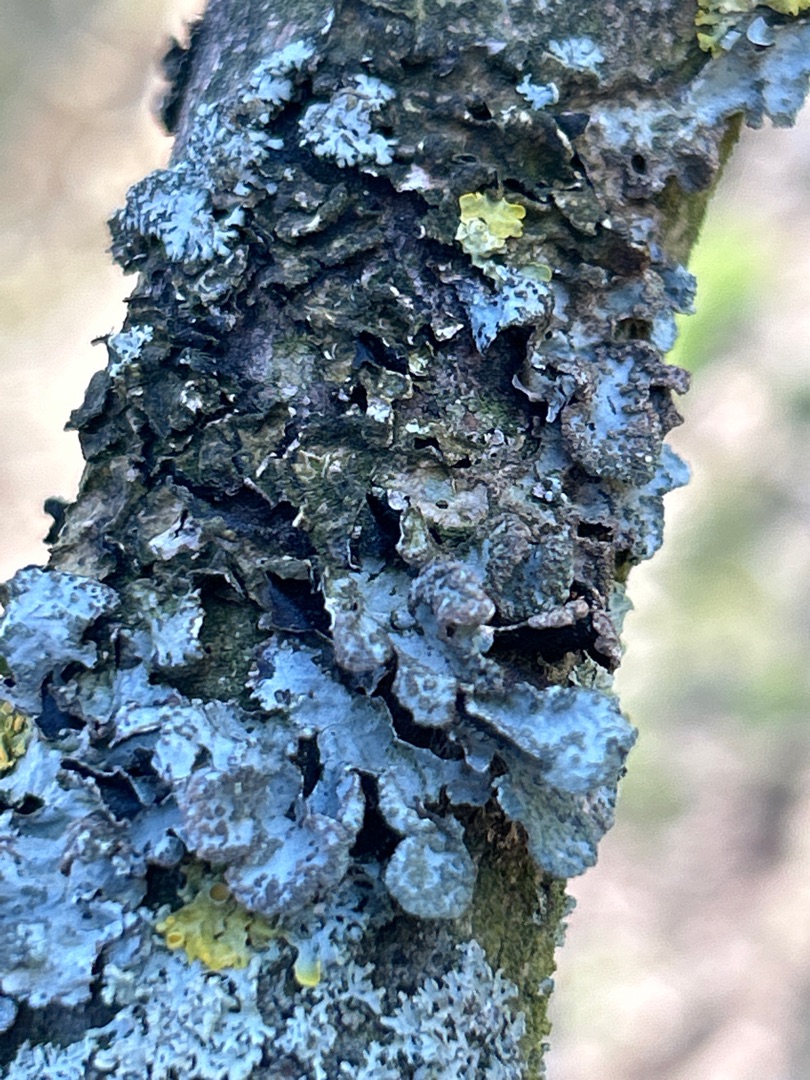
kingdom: Fungi
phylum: Ascomycota
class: Lecanoromycetes
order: Lecanorales
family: Parmeliaceae
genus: Parmelia
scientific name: Parmelia sulcata
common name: Rynket skållav
